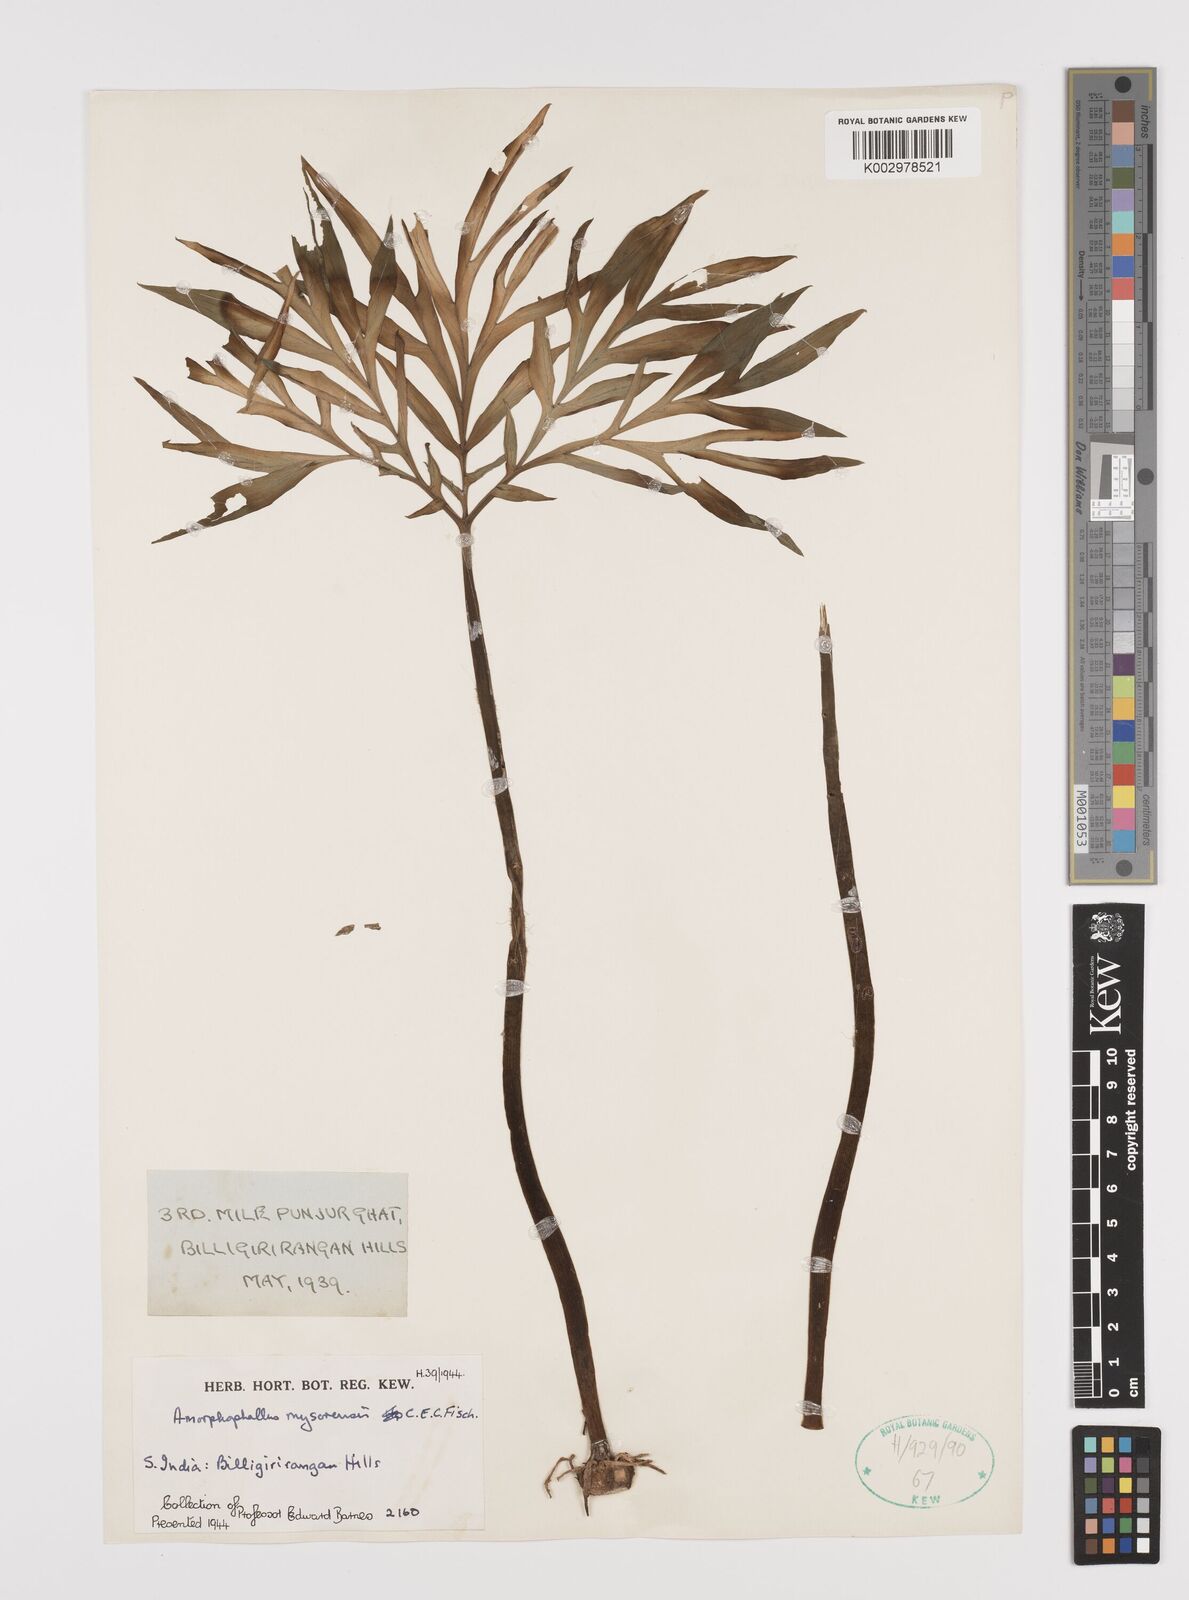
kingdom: Plantae
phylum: Tracheophyta
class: Liliopsida
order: Alismatales
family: Araceae
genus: Amorphophallus
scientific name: Amorphophallus mysorensis
